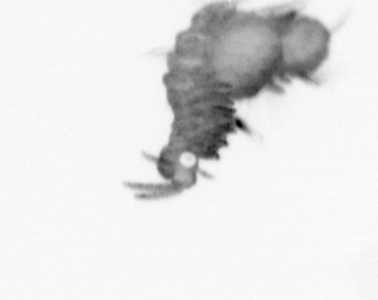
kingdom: Animalia
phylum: Annelida
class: Polychaeta
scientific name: Polychaeta
